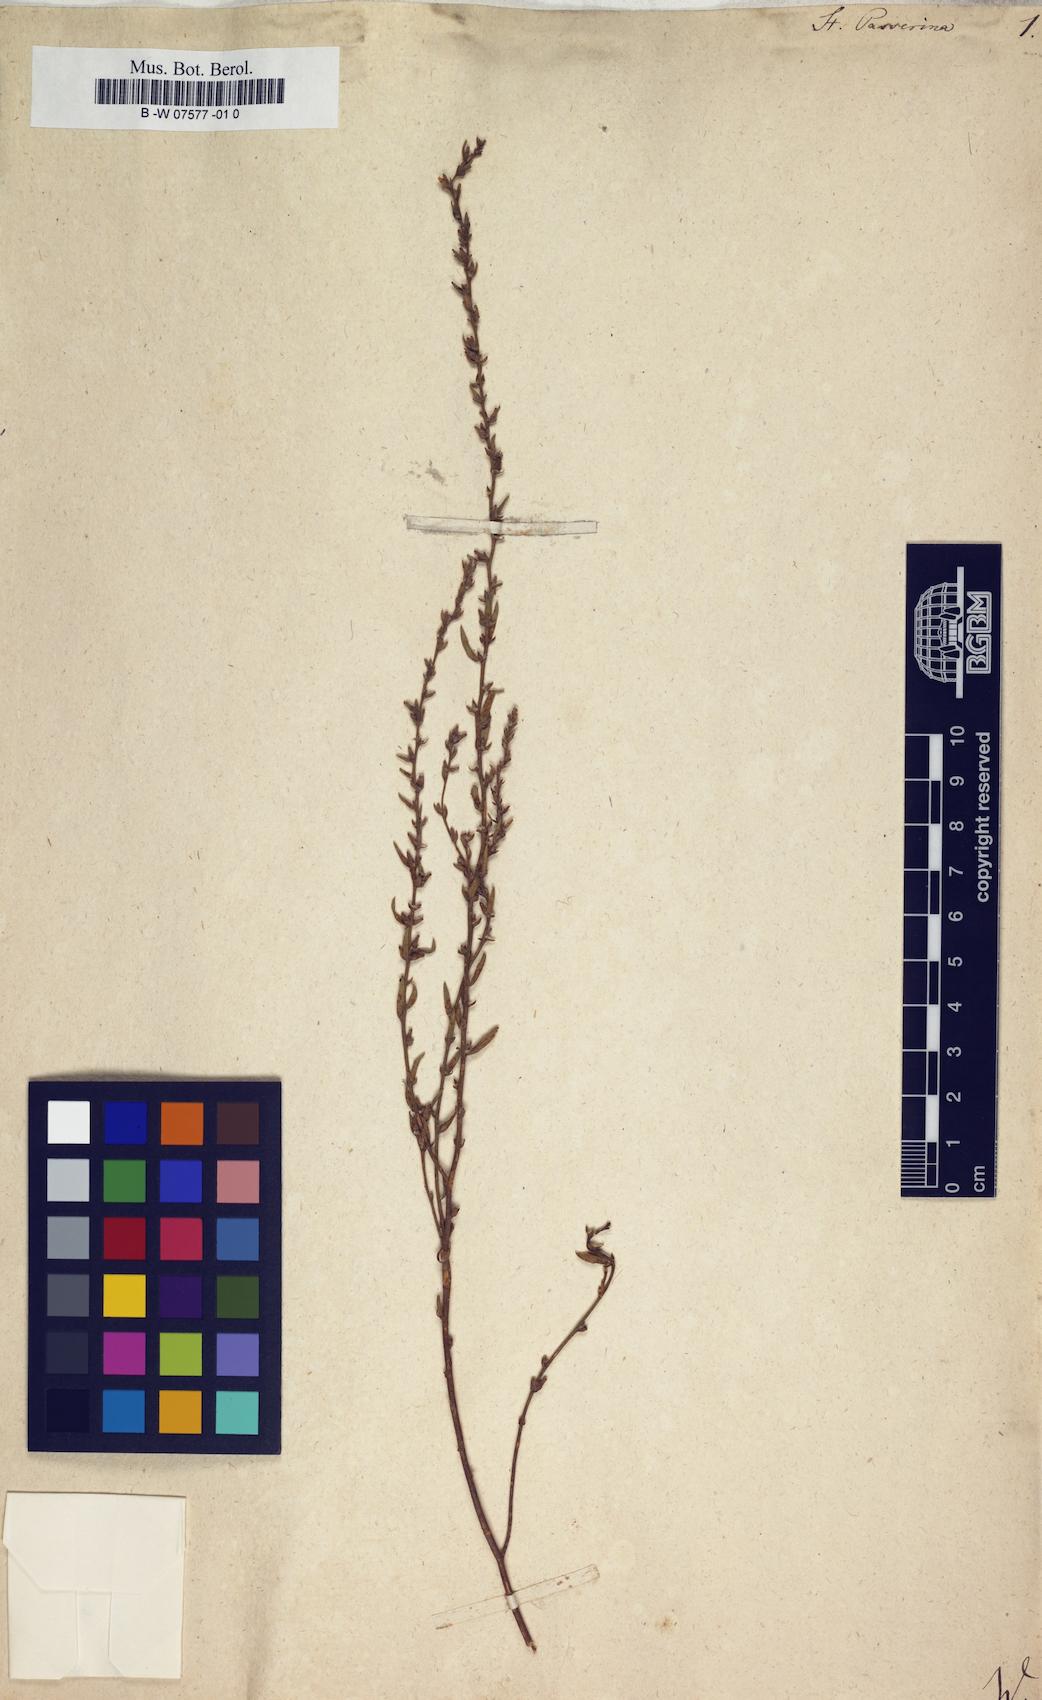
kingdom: Plantae
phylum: Tracheophyta
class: Magnoliopsida
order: Malvales
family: Thymelaeaceae
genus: Thymelaea
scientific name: Thymelaea passerina
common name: Annual thymelaea
